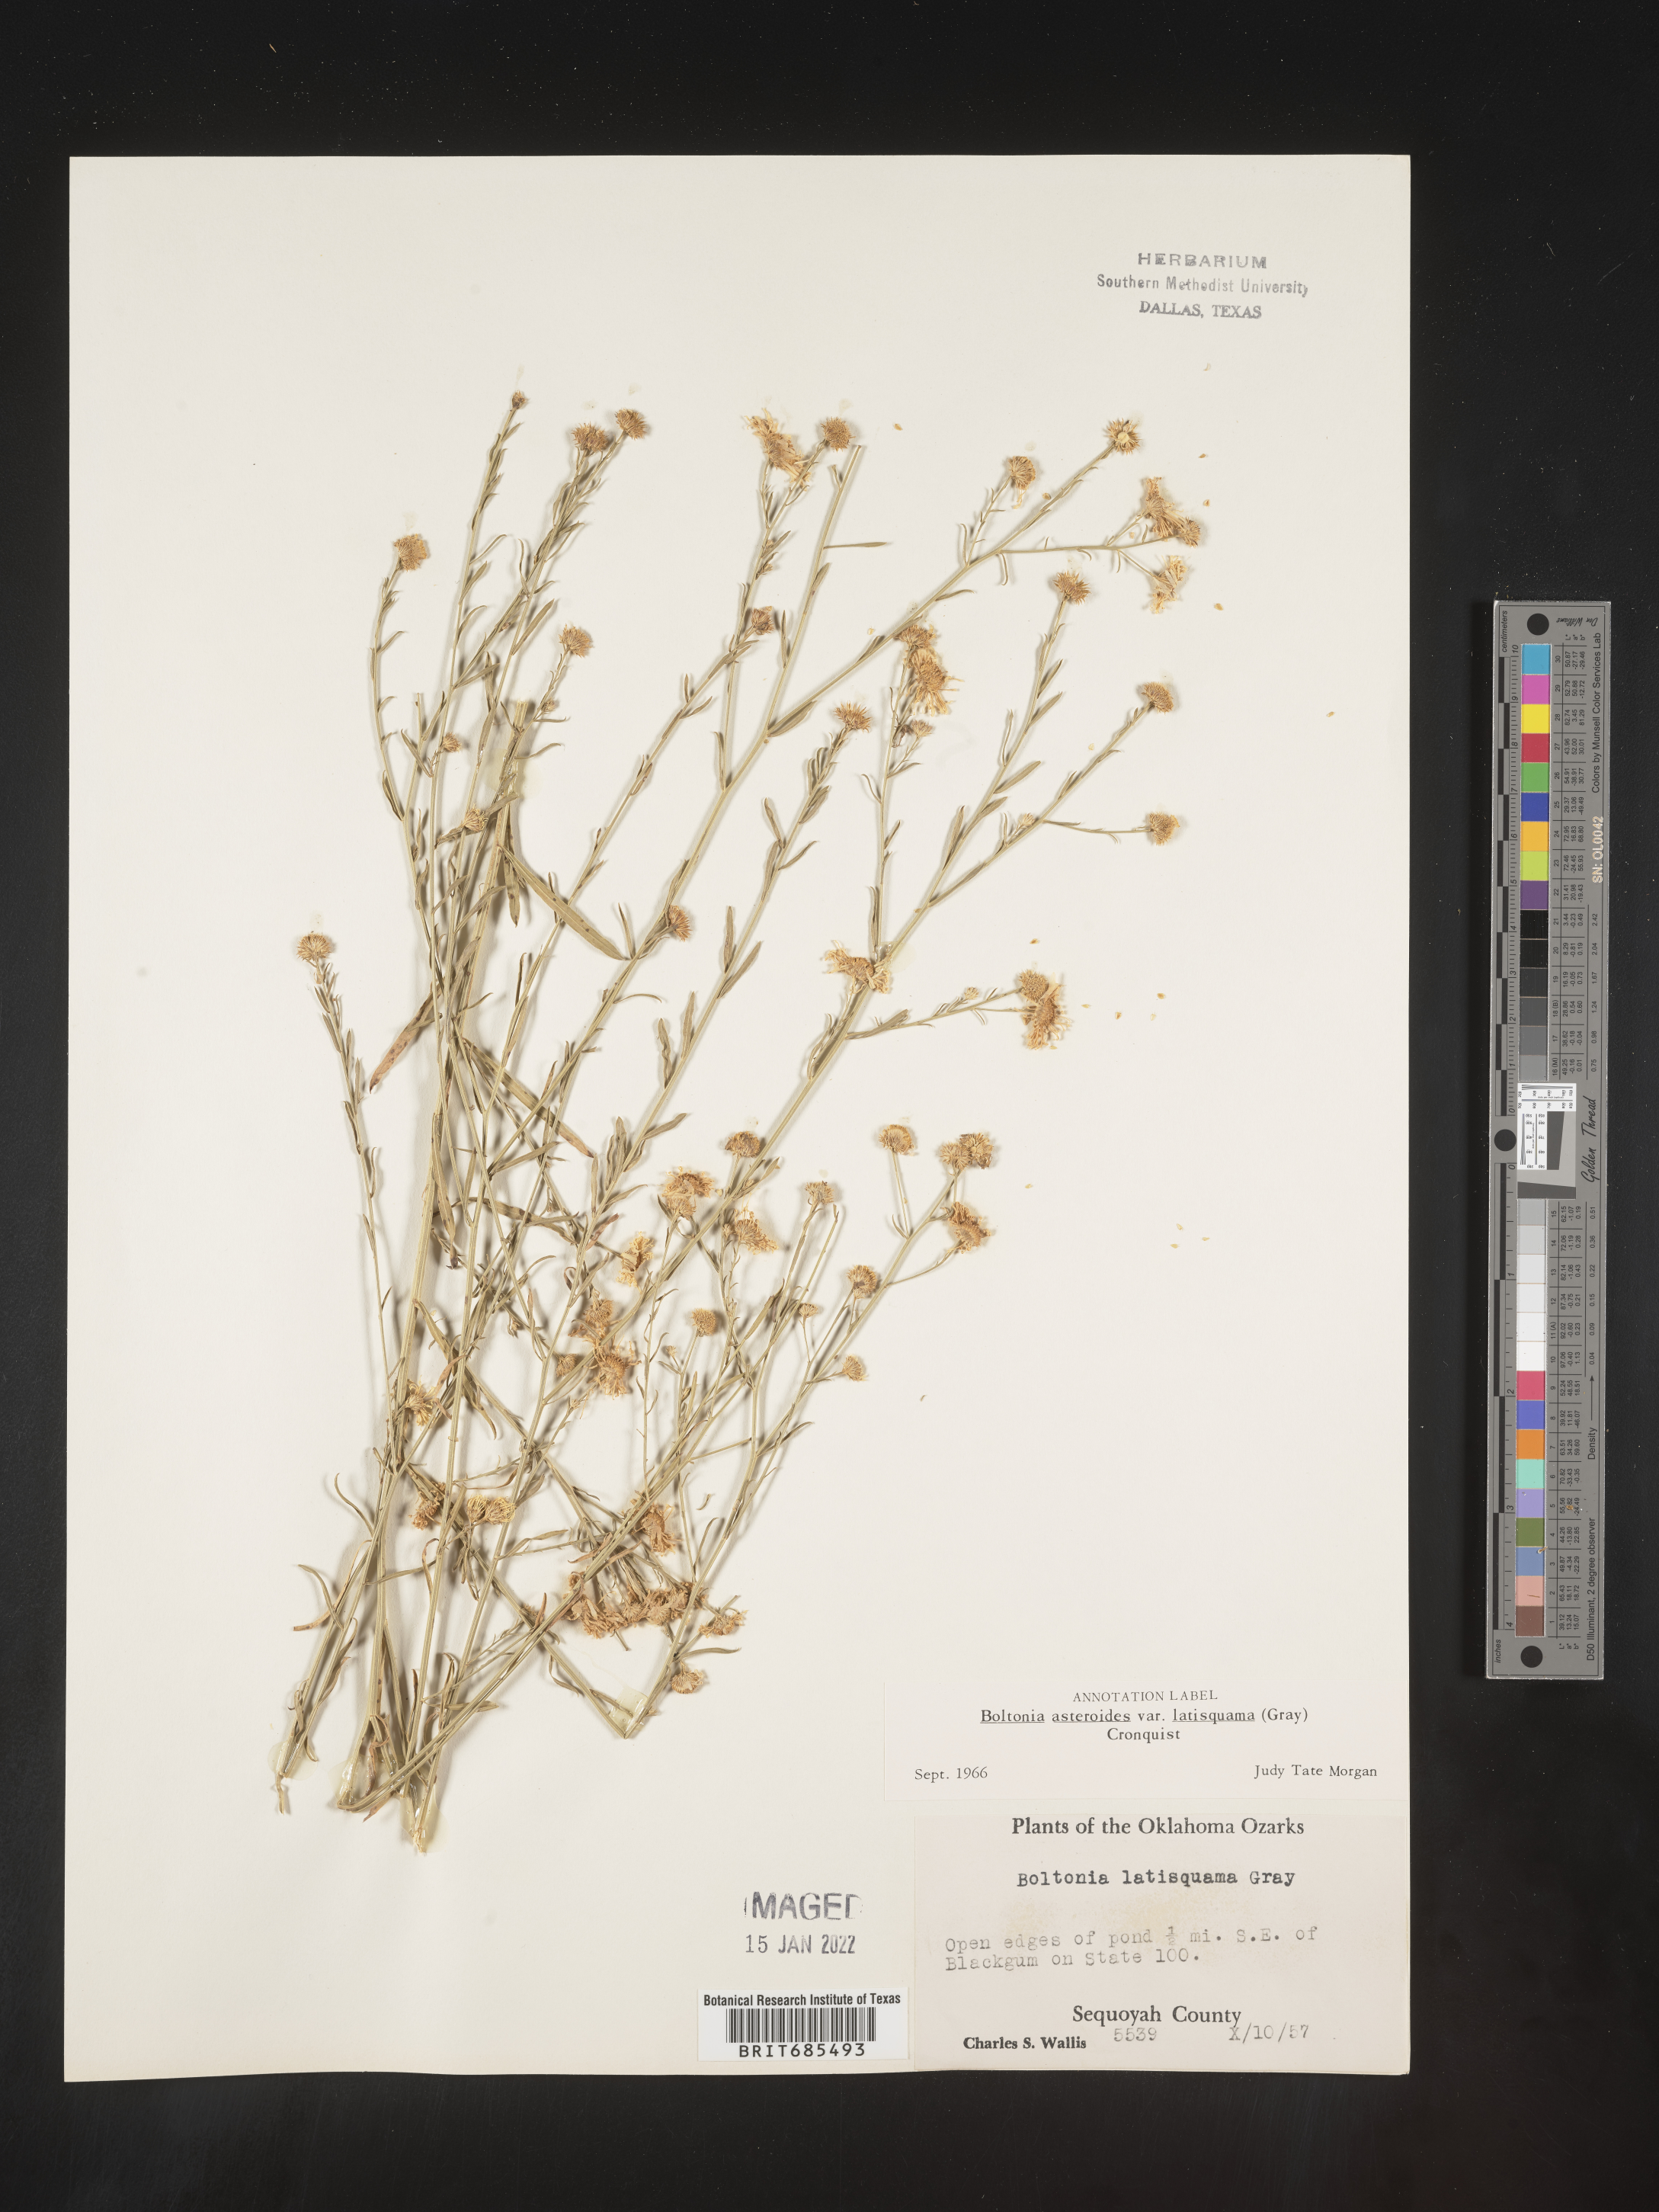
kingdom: Plantae
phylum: Tracheophyta
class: Magnoliopsida
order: Asterales
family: Asteraceae
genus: Boltonia
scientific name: Boltonia asteroides
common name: False chamomile
